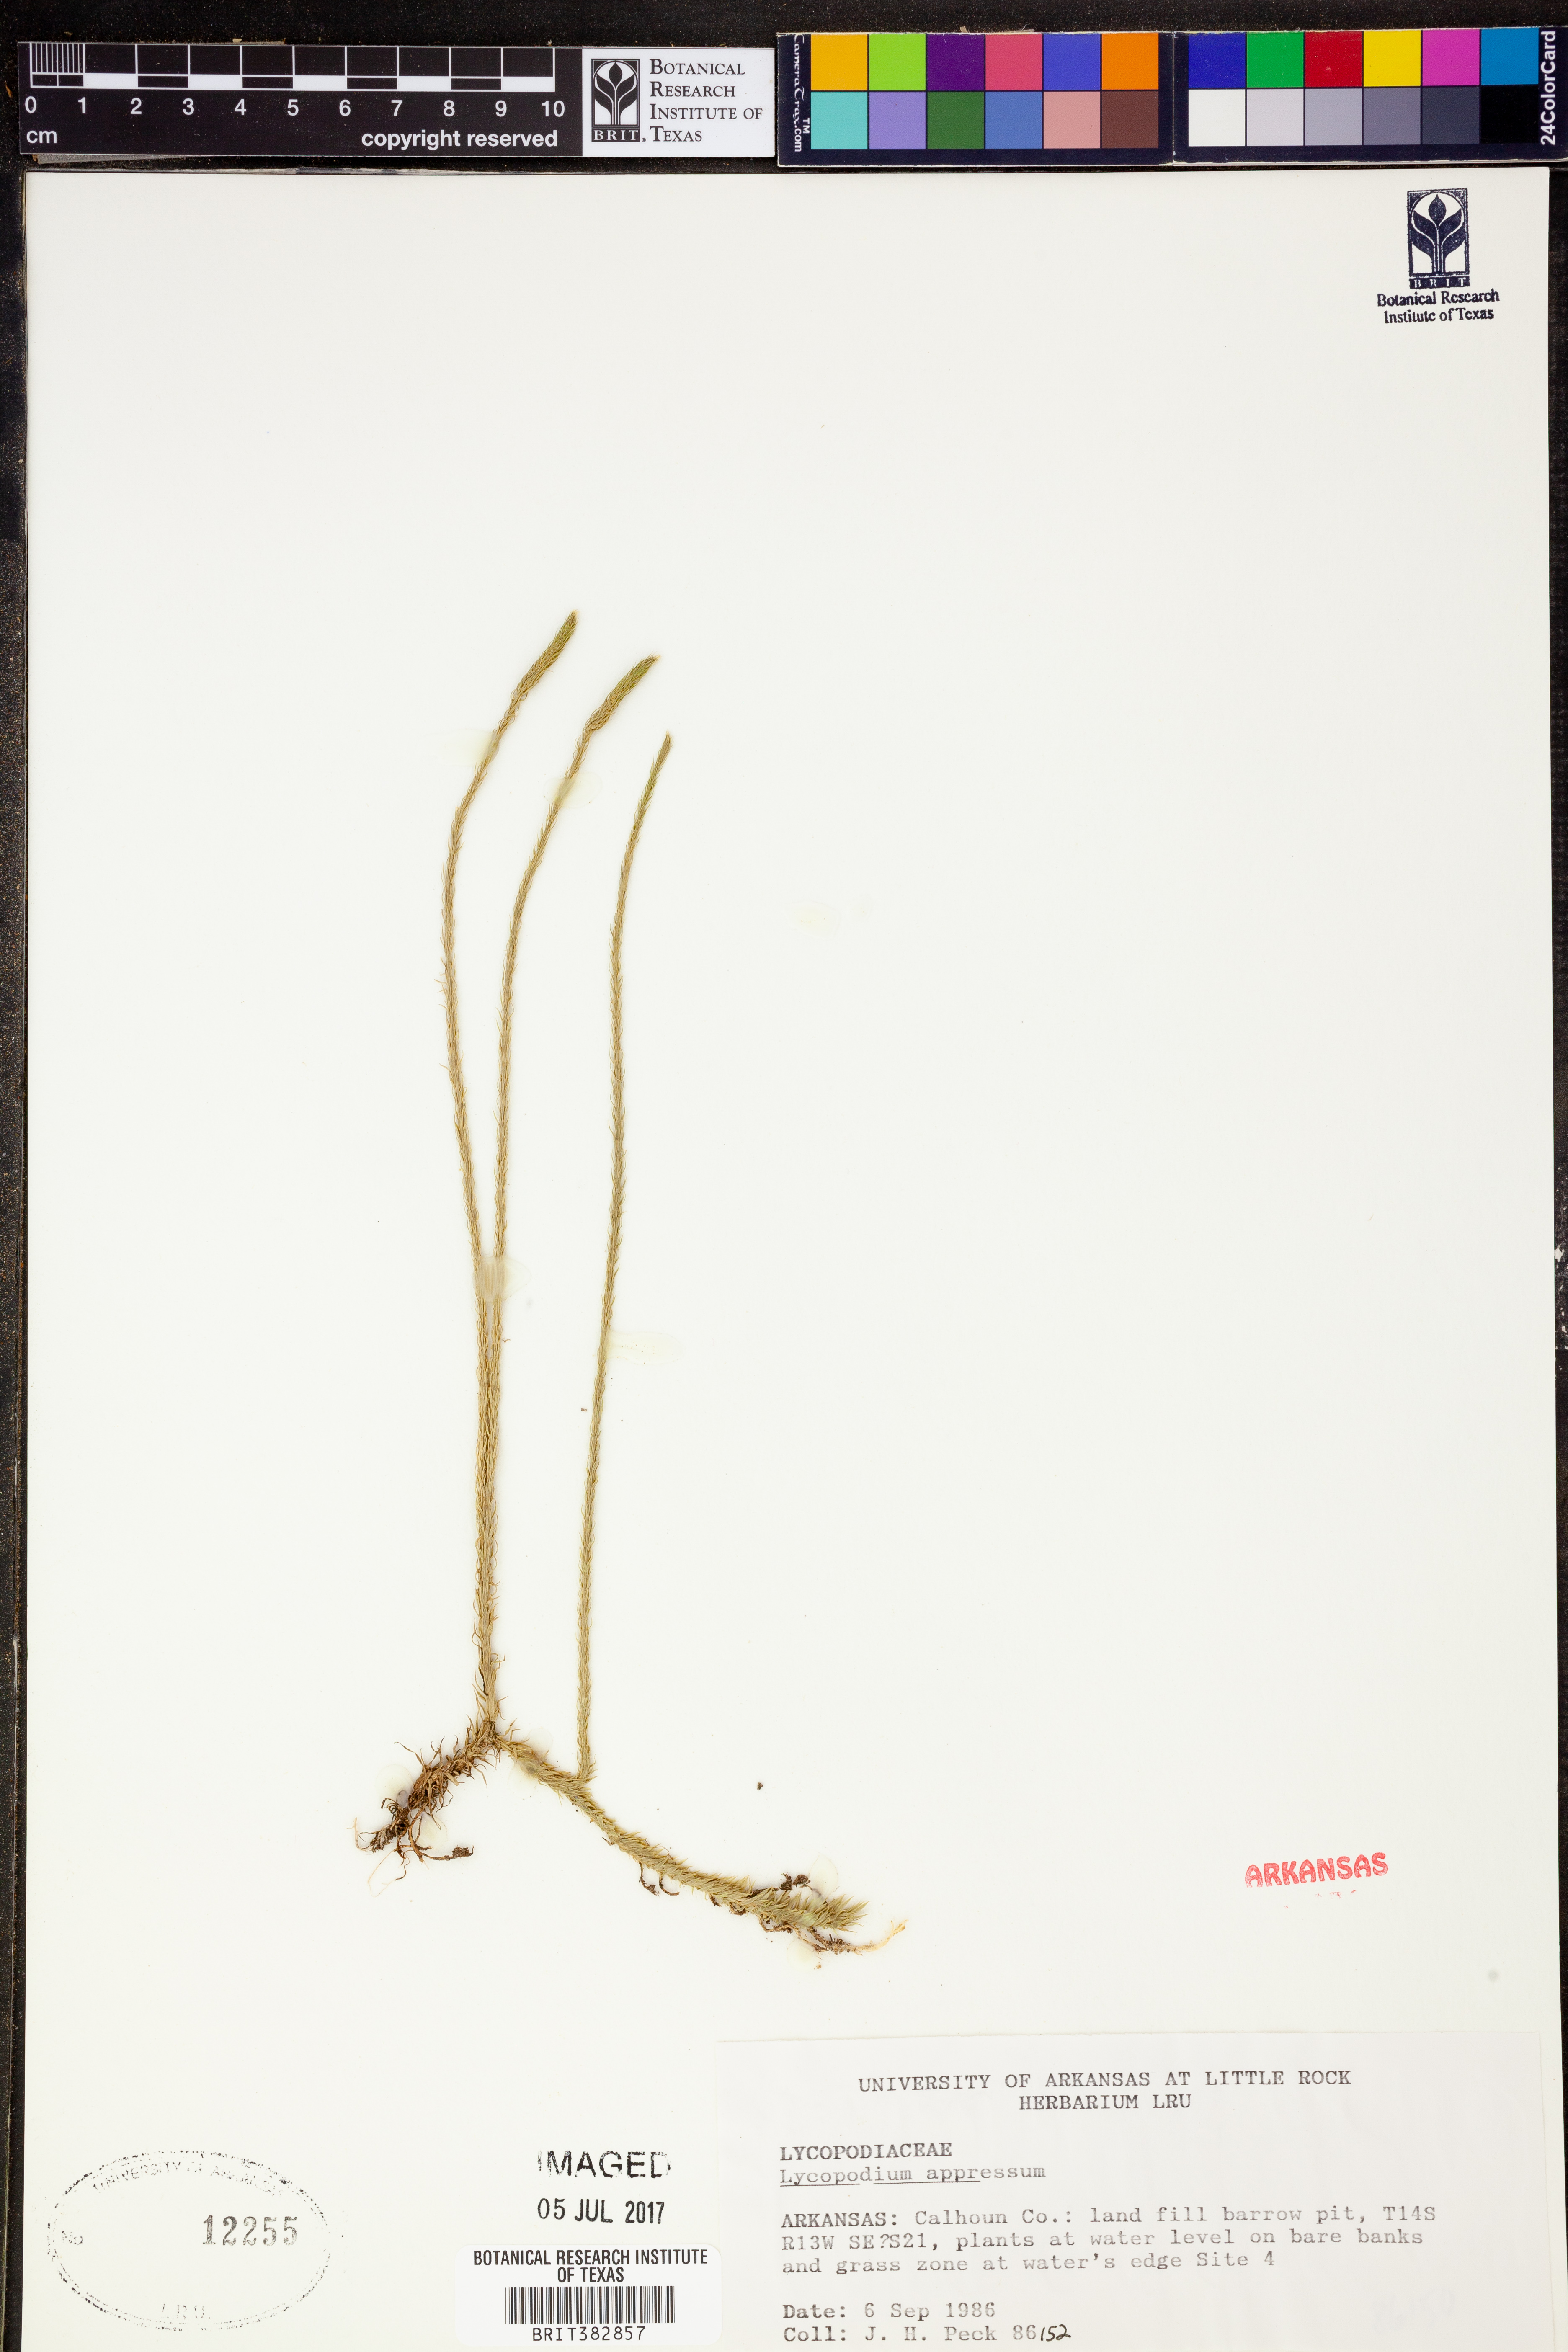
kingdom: Plantae
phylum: Tracheophyta
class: Lycopodiopsida
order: Lycopodiales
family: Lycopodiaceae
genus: Lycopodiella
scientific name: Lycopodiella appressa
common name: Appressed bog clubmoss
